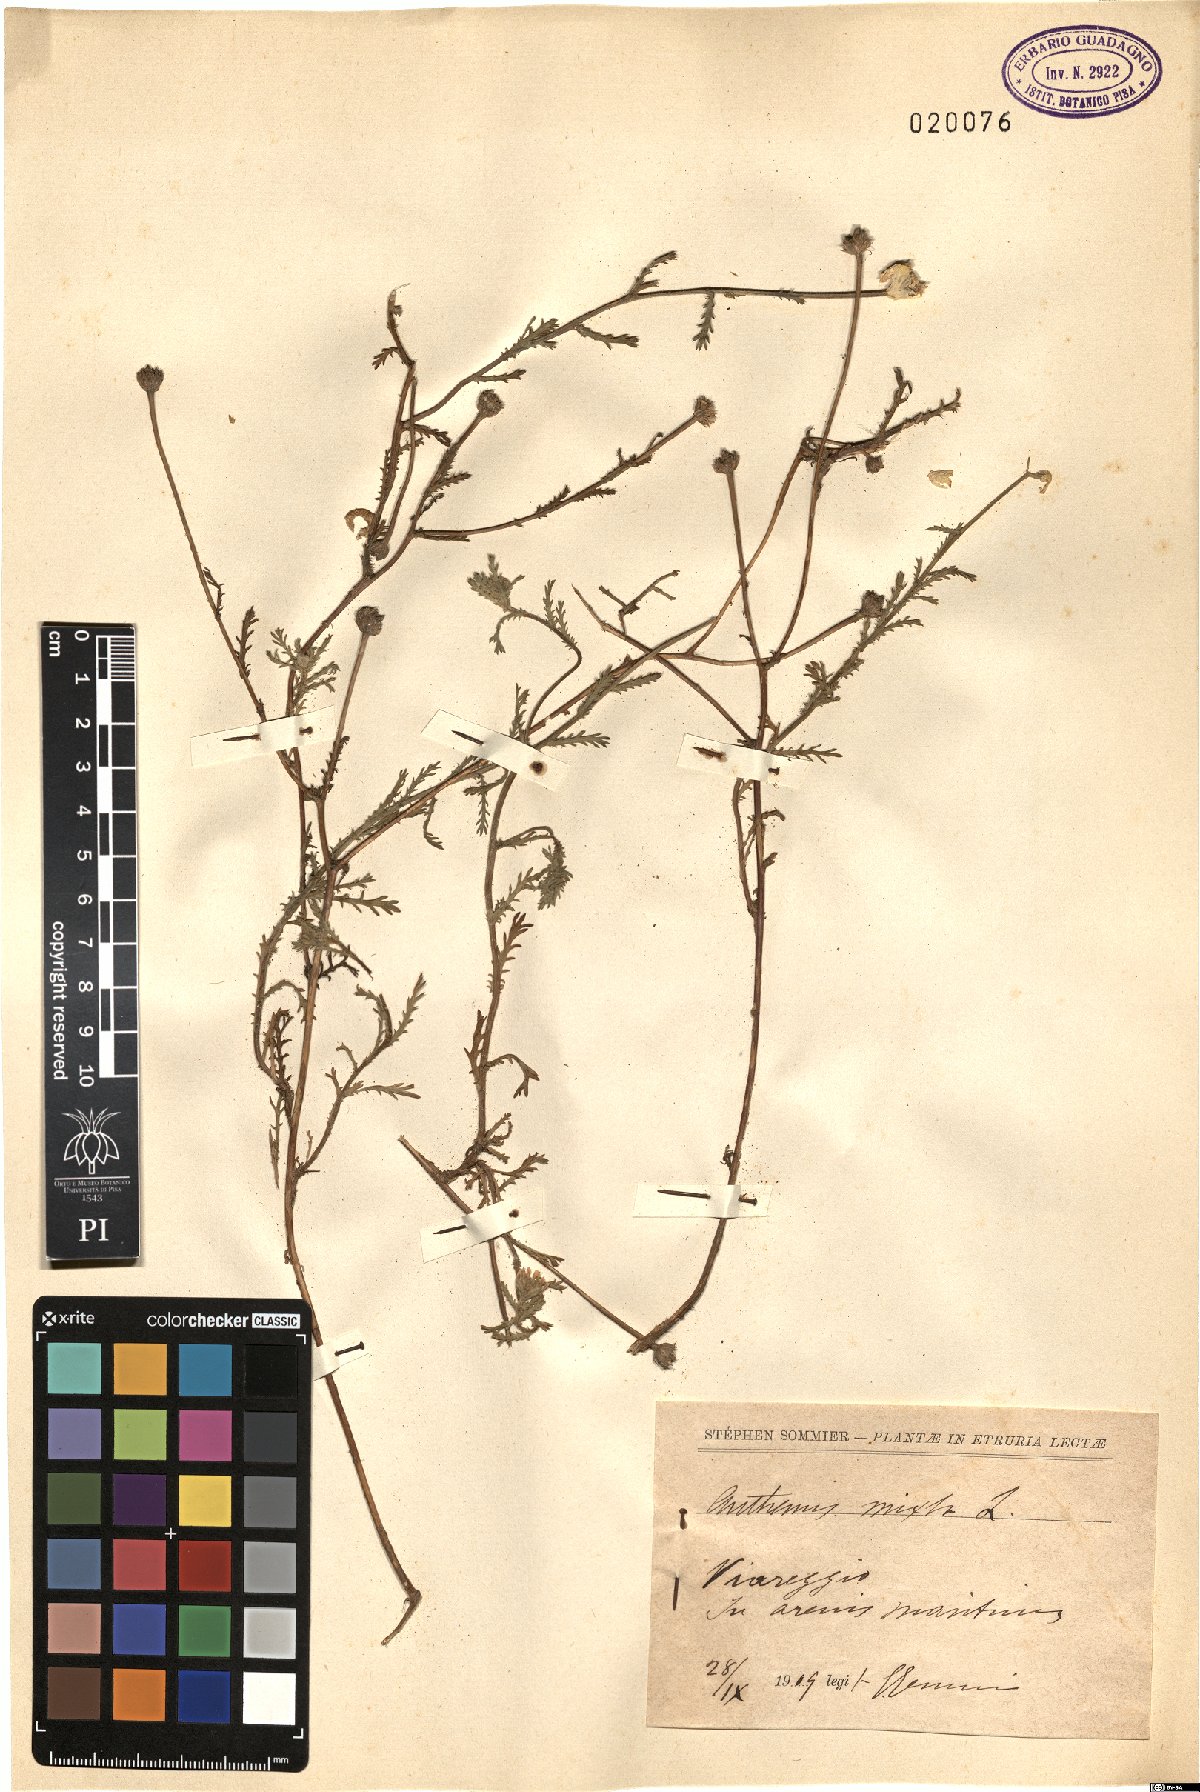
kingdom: Plantae
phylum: Tracheophyta
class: Magnoliopsida
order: Asterales
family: Asteraceae
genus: Cladanthus
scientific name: Cladanthus mixtus
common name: Weedy dogfennel
